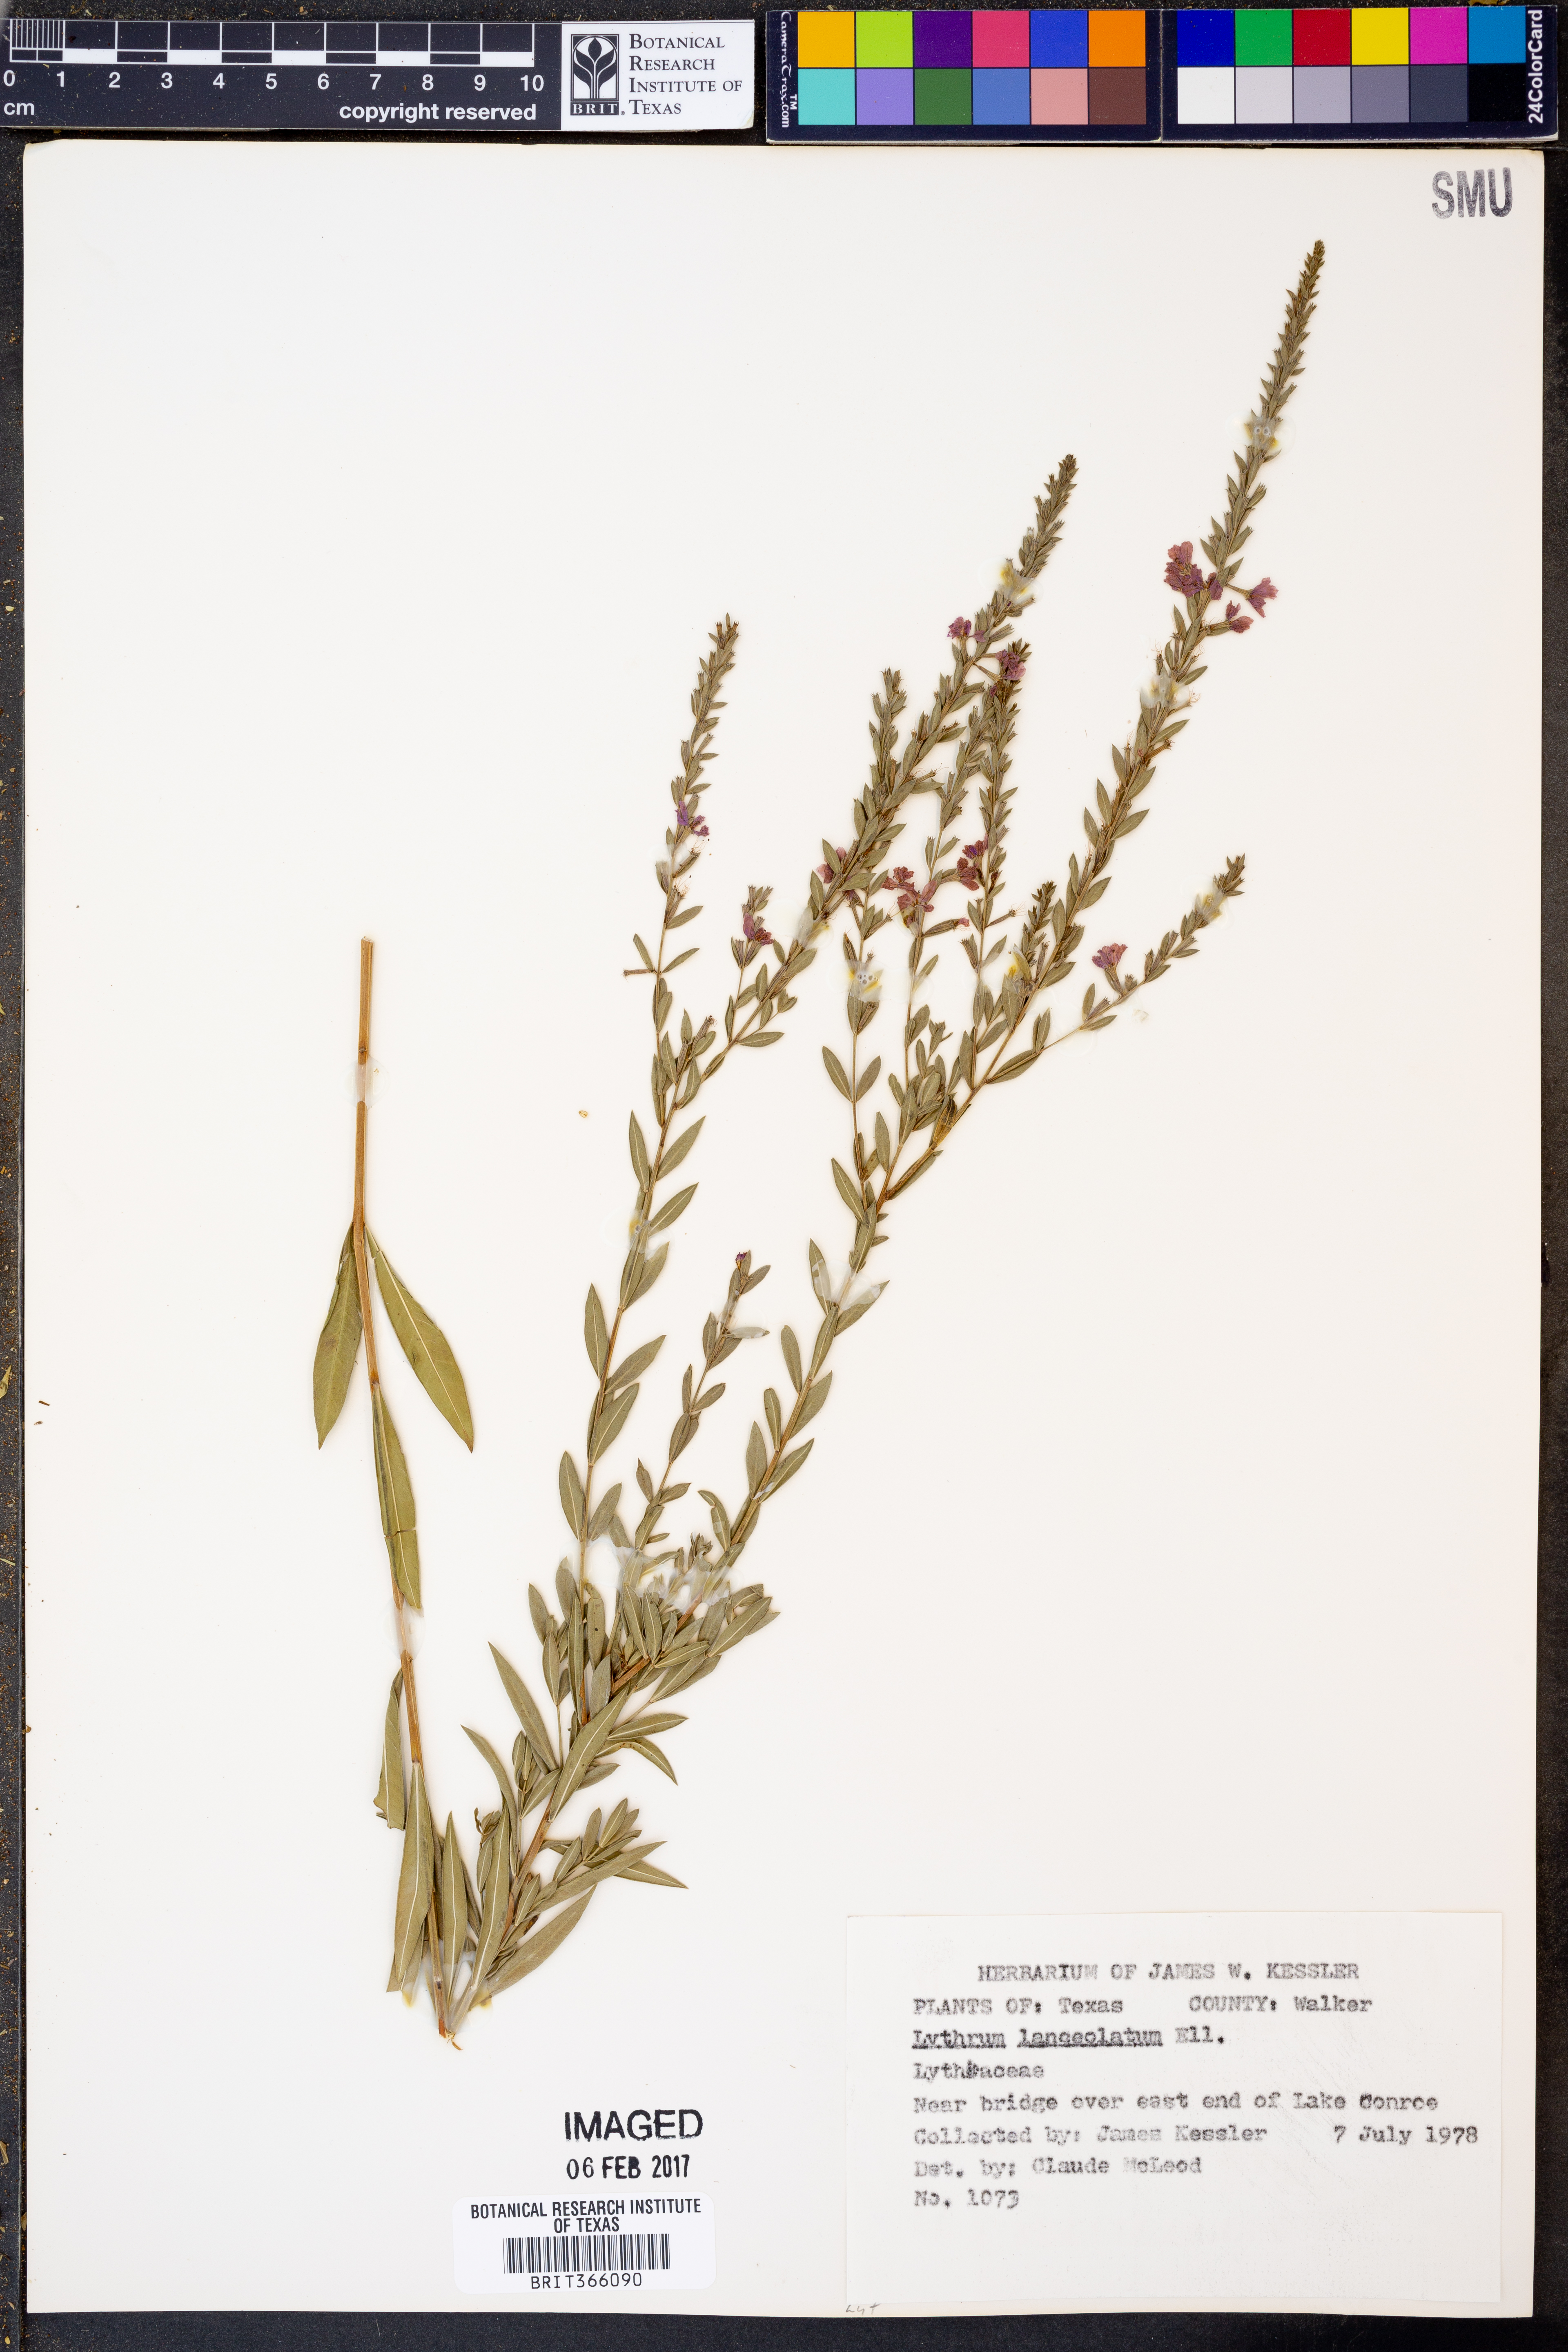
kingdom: Plantae
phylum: Tracheophyta
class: Magnoliopsida
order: Myrtales
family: Lythraceae
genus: Lythrum
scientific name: Lythrum alatum
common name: Winged loosestrife
